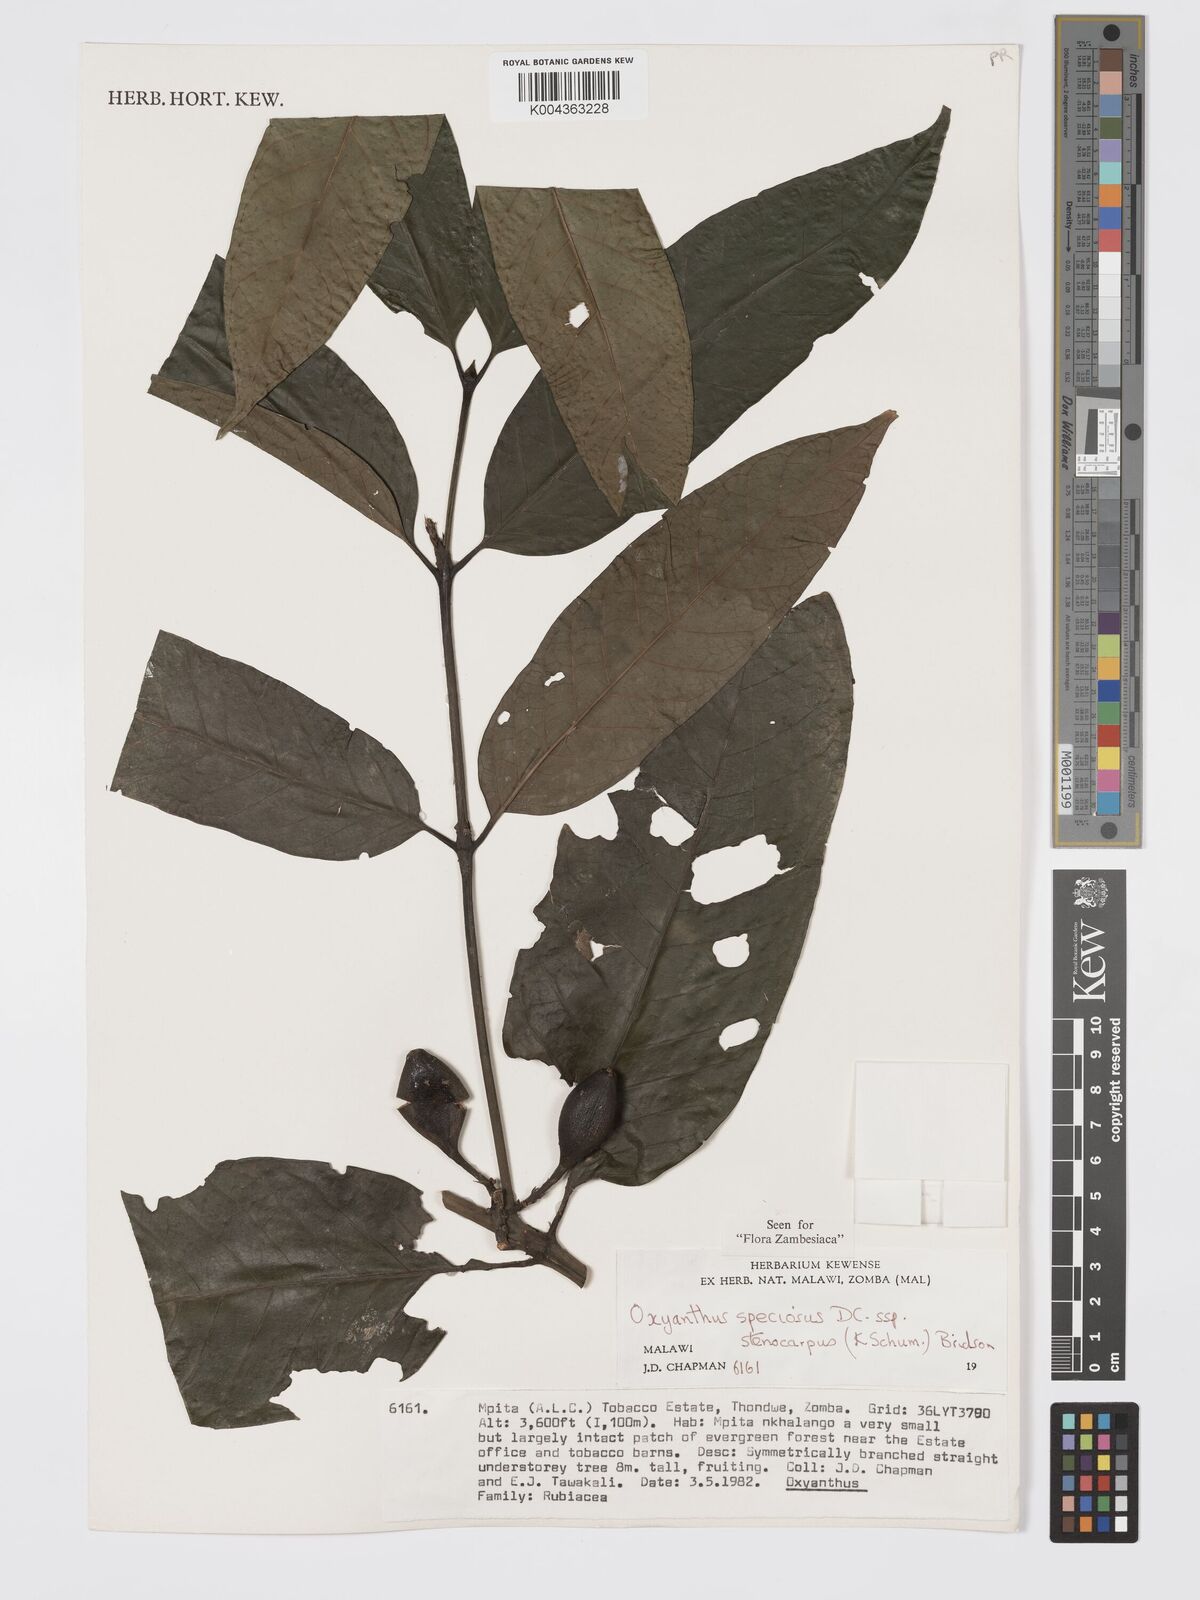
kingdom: Plantae
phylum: Tracheophyta
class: Magnoliopsida
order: Gentianales
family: Rubiaceae
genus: Oxyanthus
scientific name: Oxyanthus speciosus
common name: Whipstick loquat
